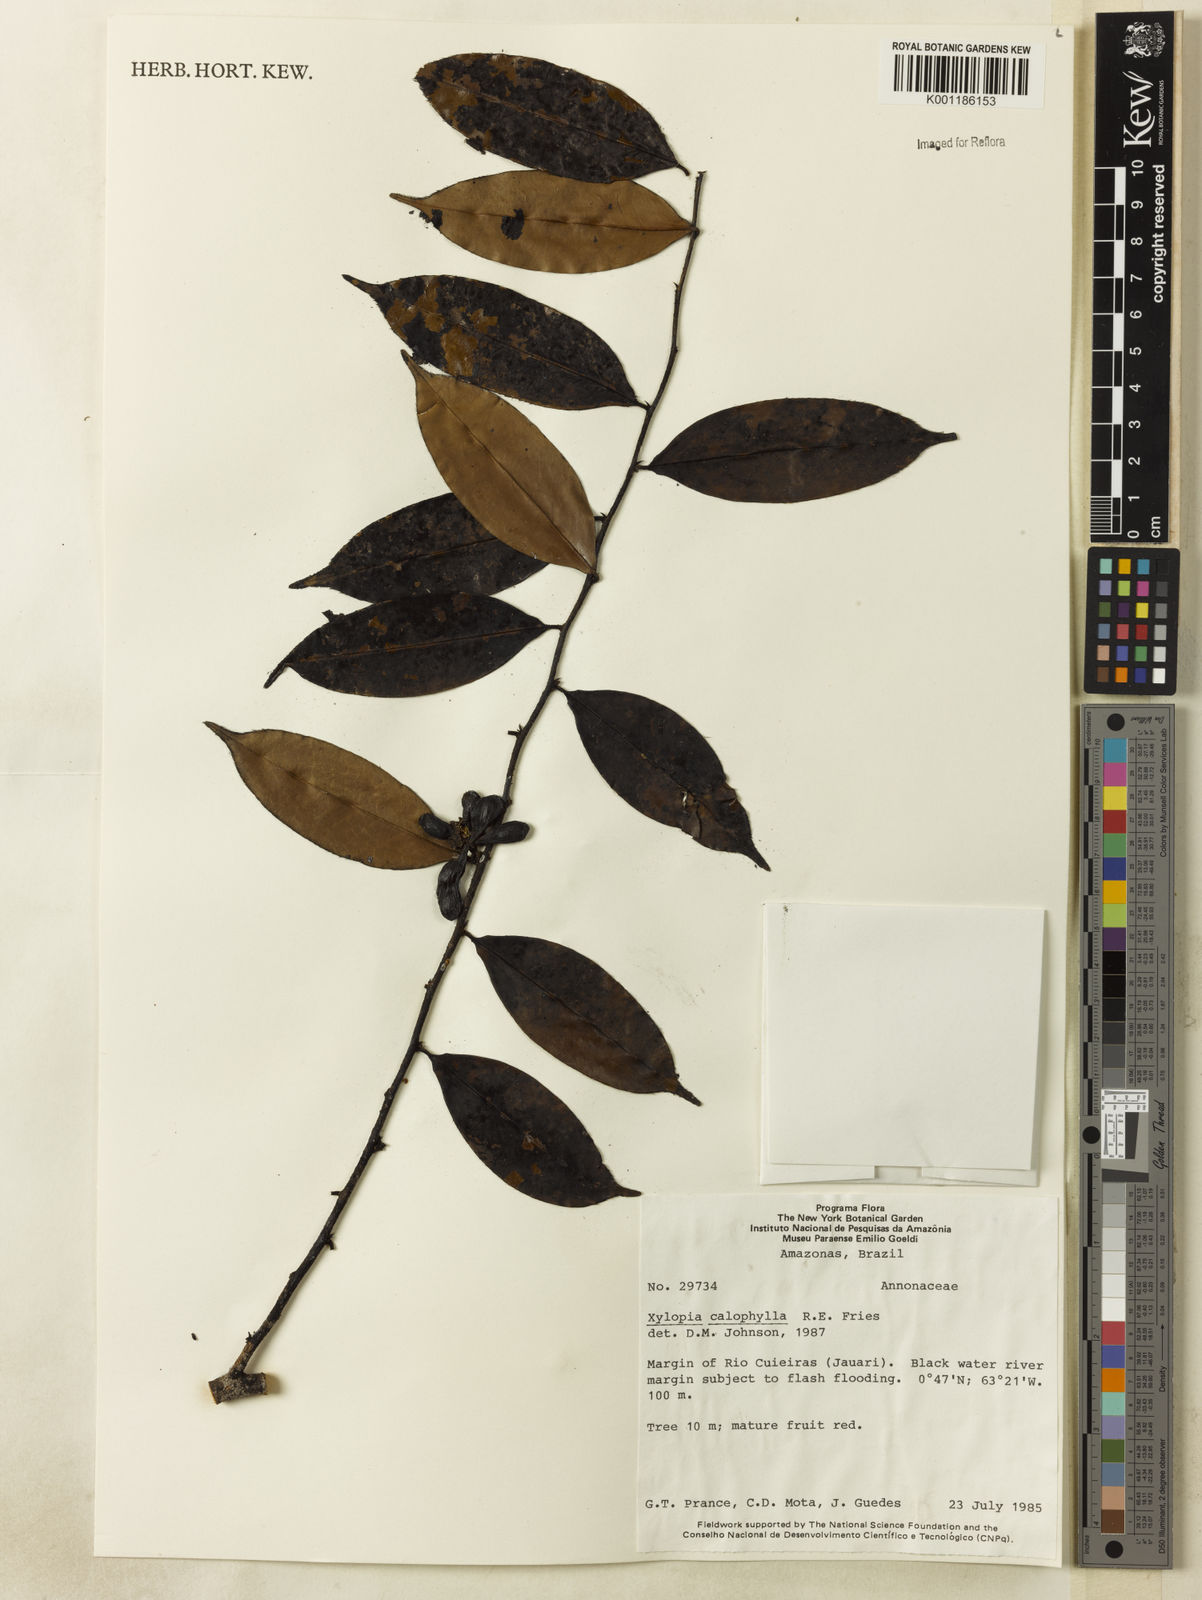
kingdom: Plantae
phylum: Tracheophyta
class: Magnoliopsida
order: Magnoliales
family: Annonaceae
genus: Xylopia
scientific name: Xylopia calophylla
